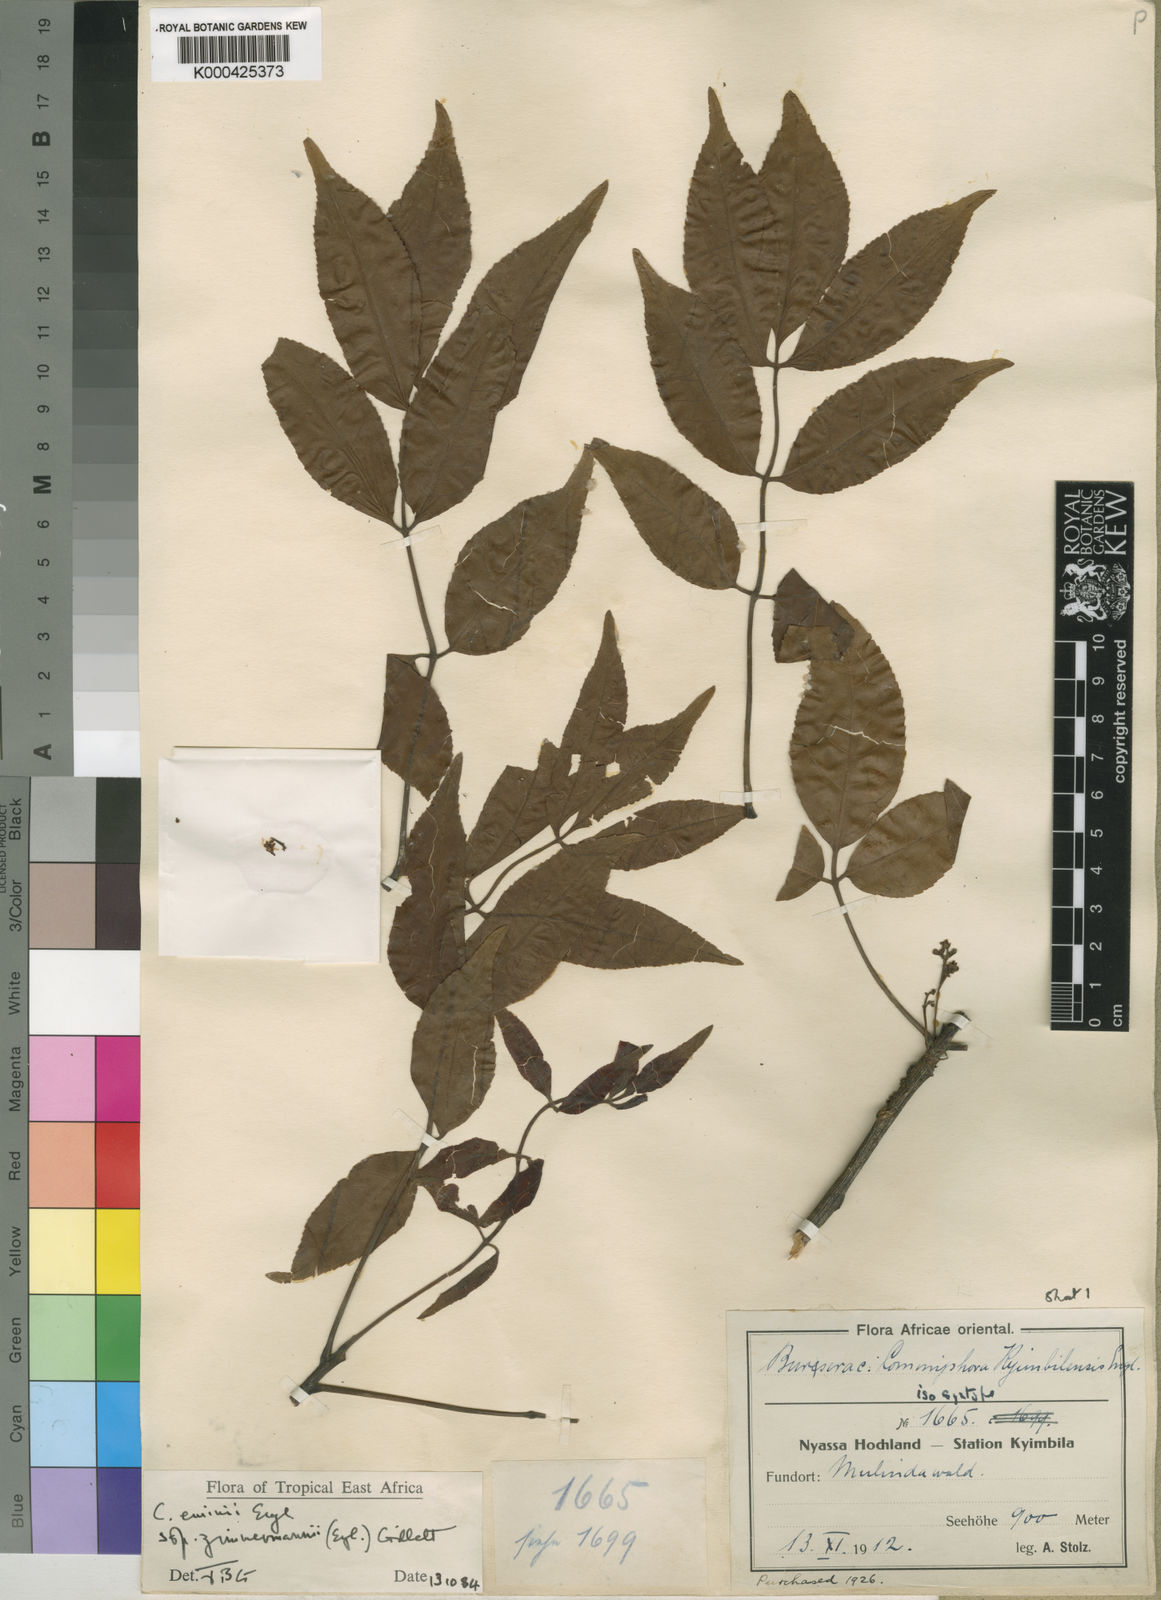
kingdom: Plantae
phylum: Tracheophyta
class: Magnoliopsida
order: Sapindales
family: Burseraceae
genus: Commiphora
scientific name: Commiphora eminii
